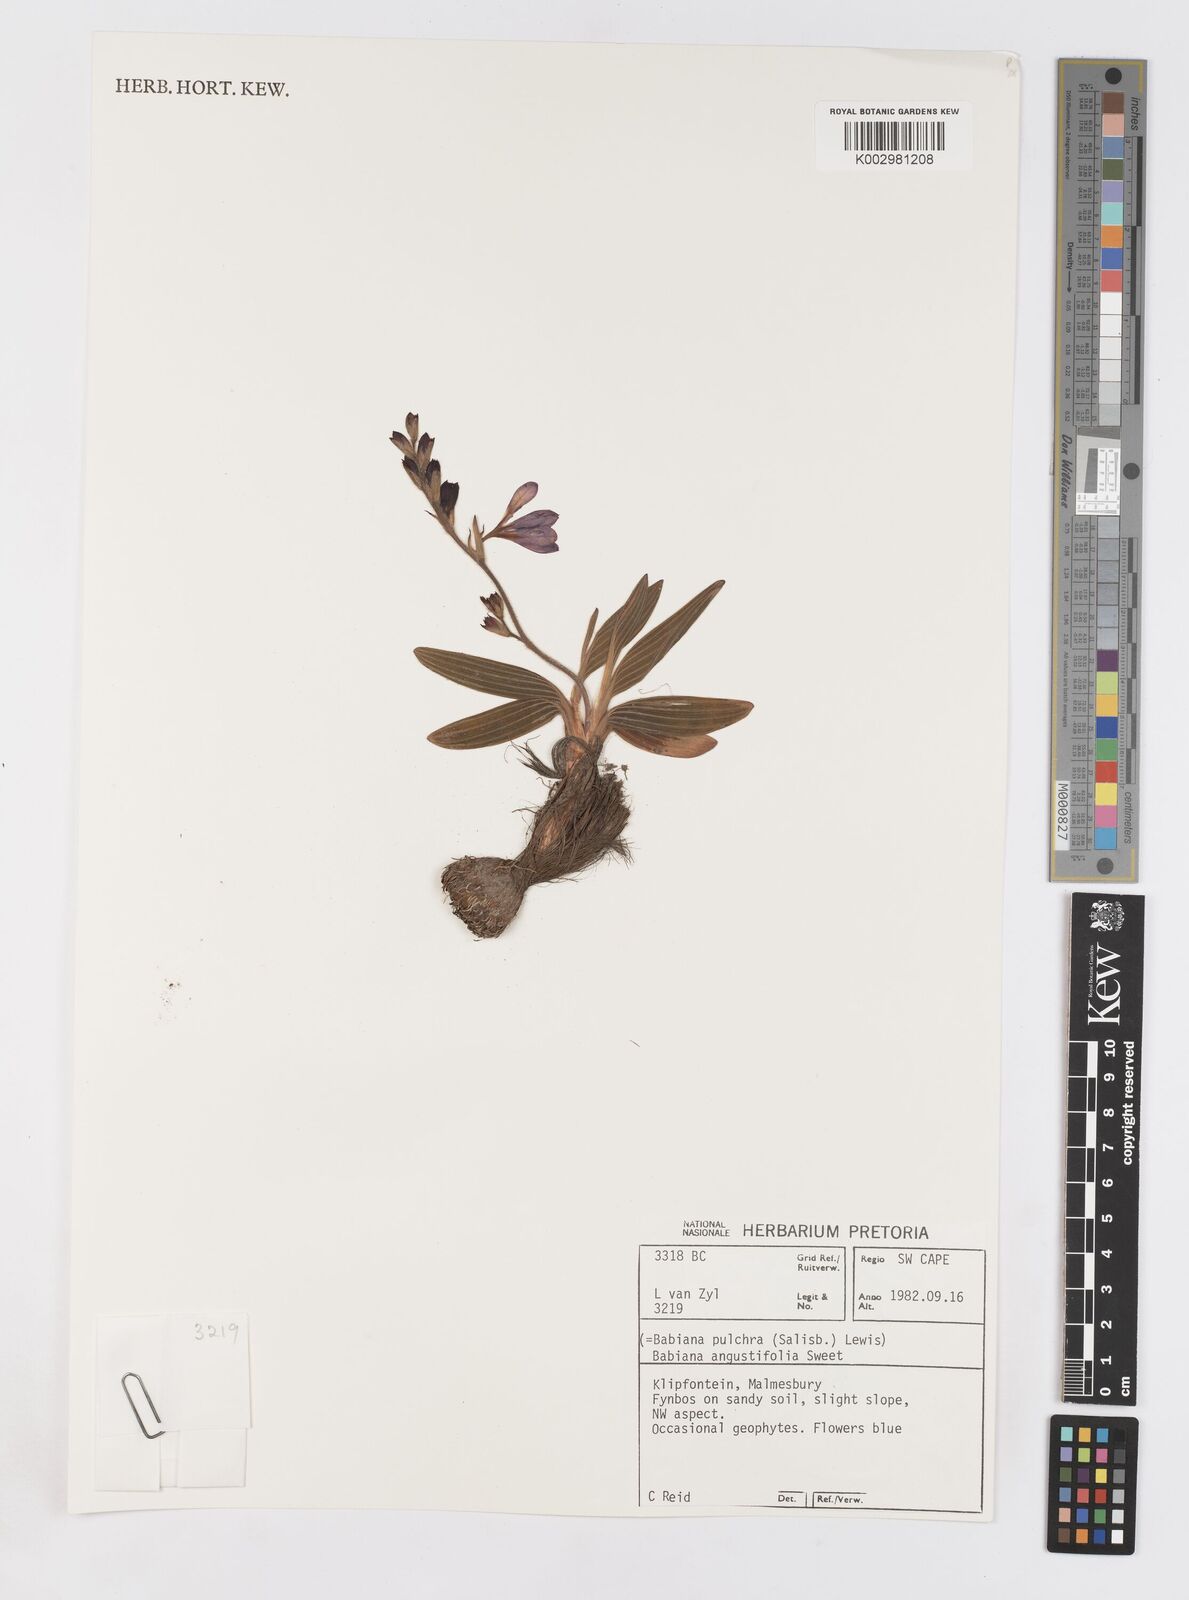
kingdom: Plantae
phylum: Tracheophyta
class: Liliopsida
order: Asparagales
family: Iridaceae
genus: Babiana
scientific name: Babiana angustifolia
